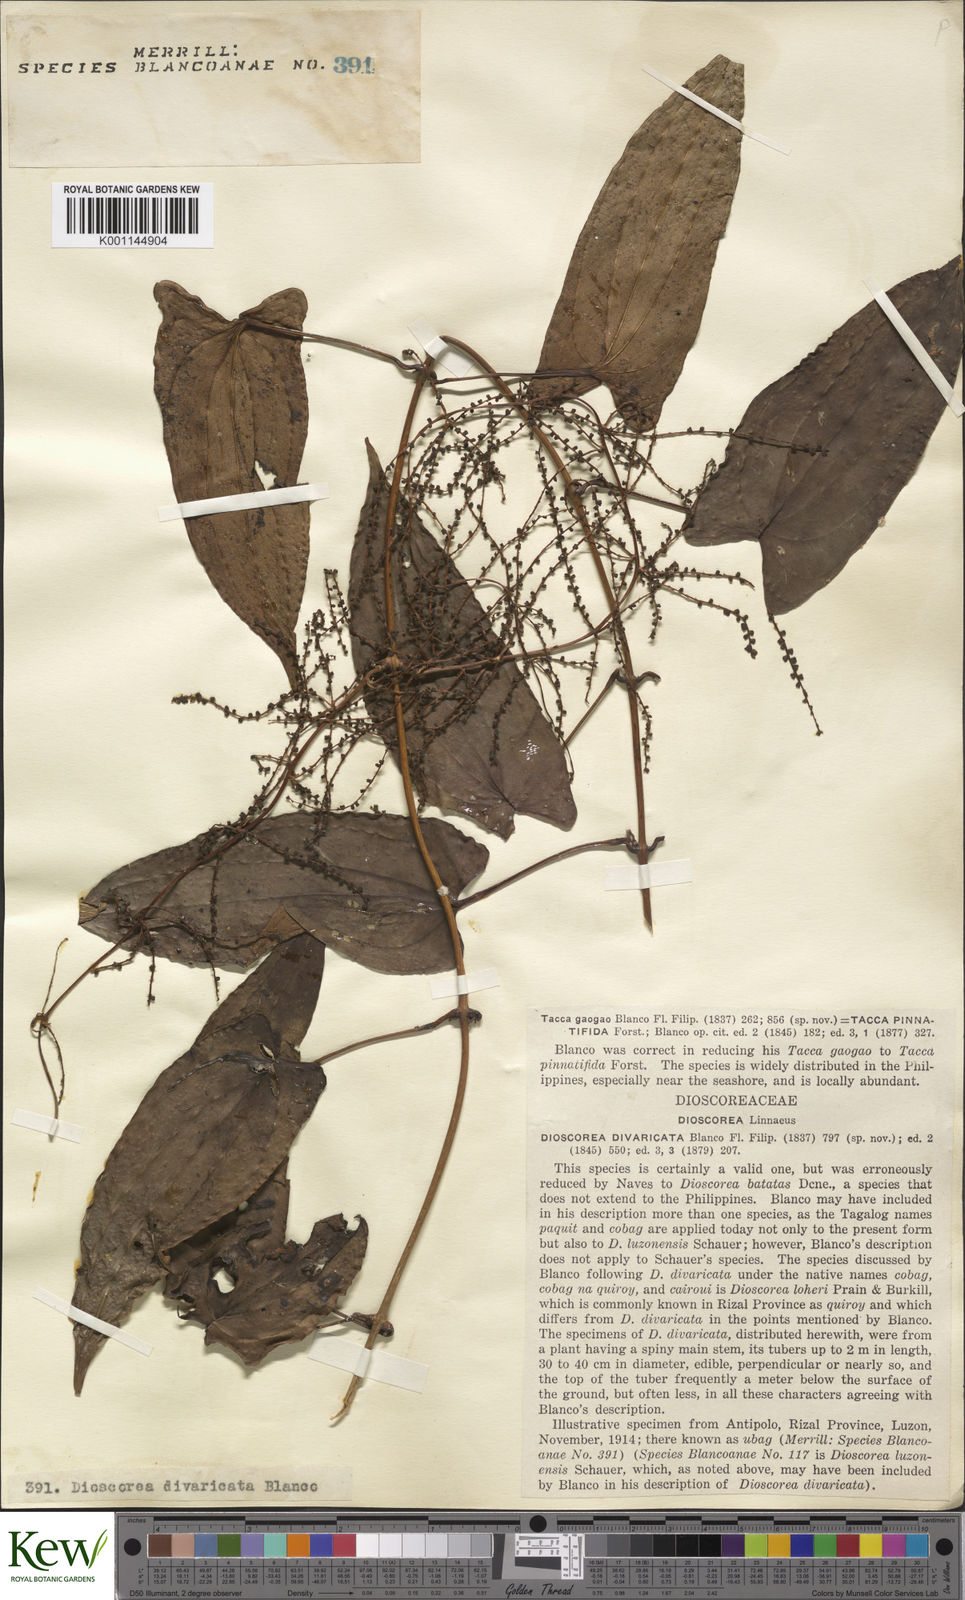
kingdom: Plantae
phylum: Tracheophyta
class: Liliopsida
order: Dioscoreales
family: Dioscoreaceae
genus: Dioscorea
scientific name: Dioscorea divaricata
